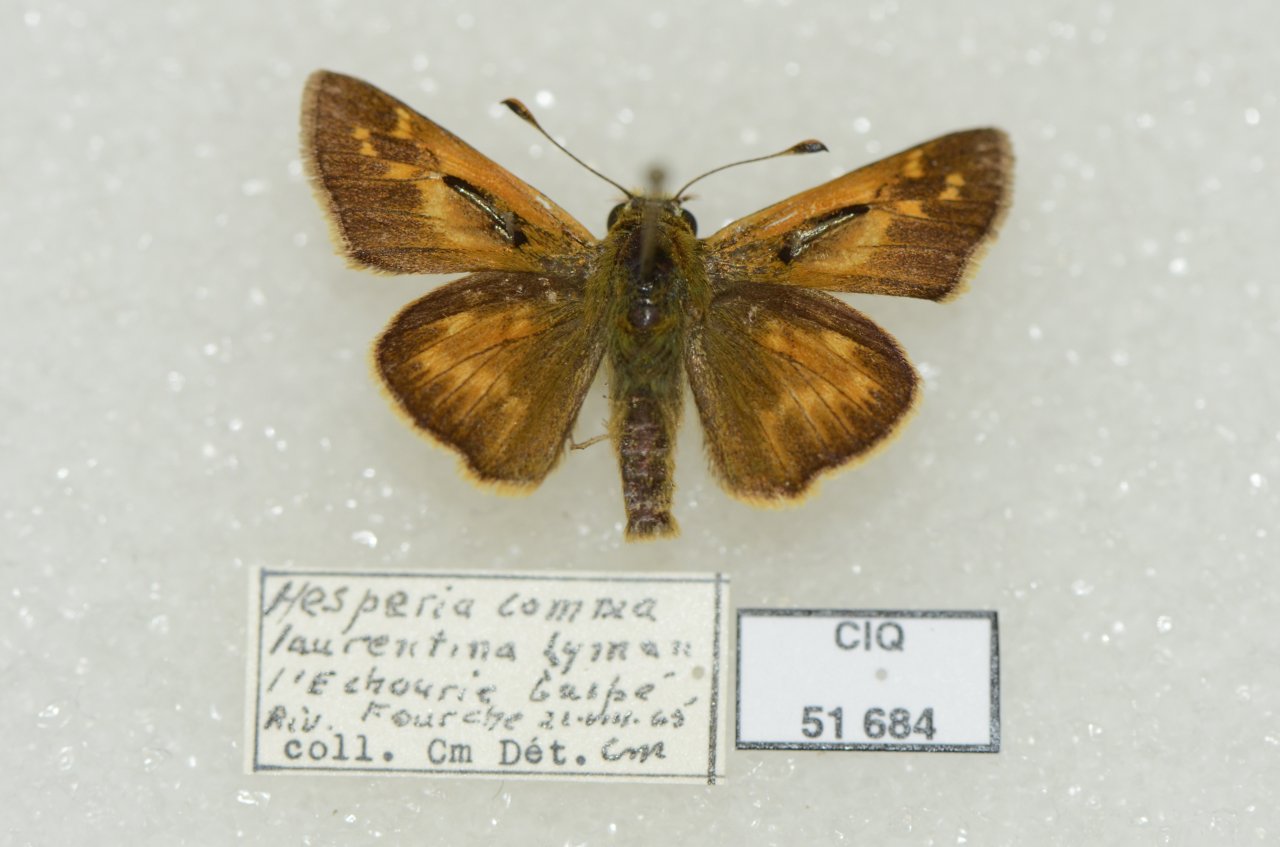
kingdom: Animalia
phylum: Arthropoda
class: Insecta
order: Lepidoptera
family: Hesperiidae
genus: Hesperia
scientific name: Hesperia comma
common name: Common Branded Skipper
